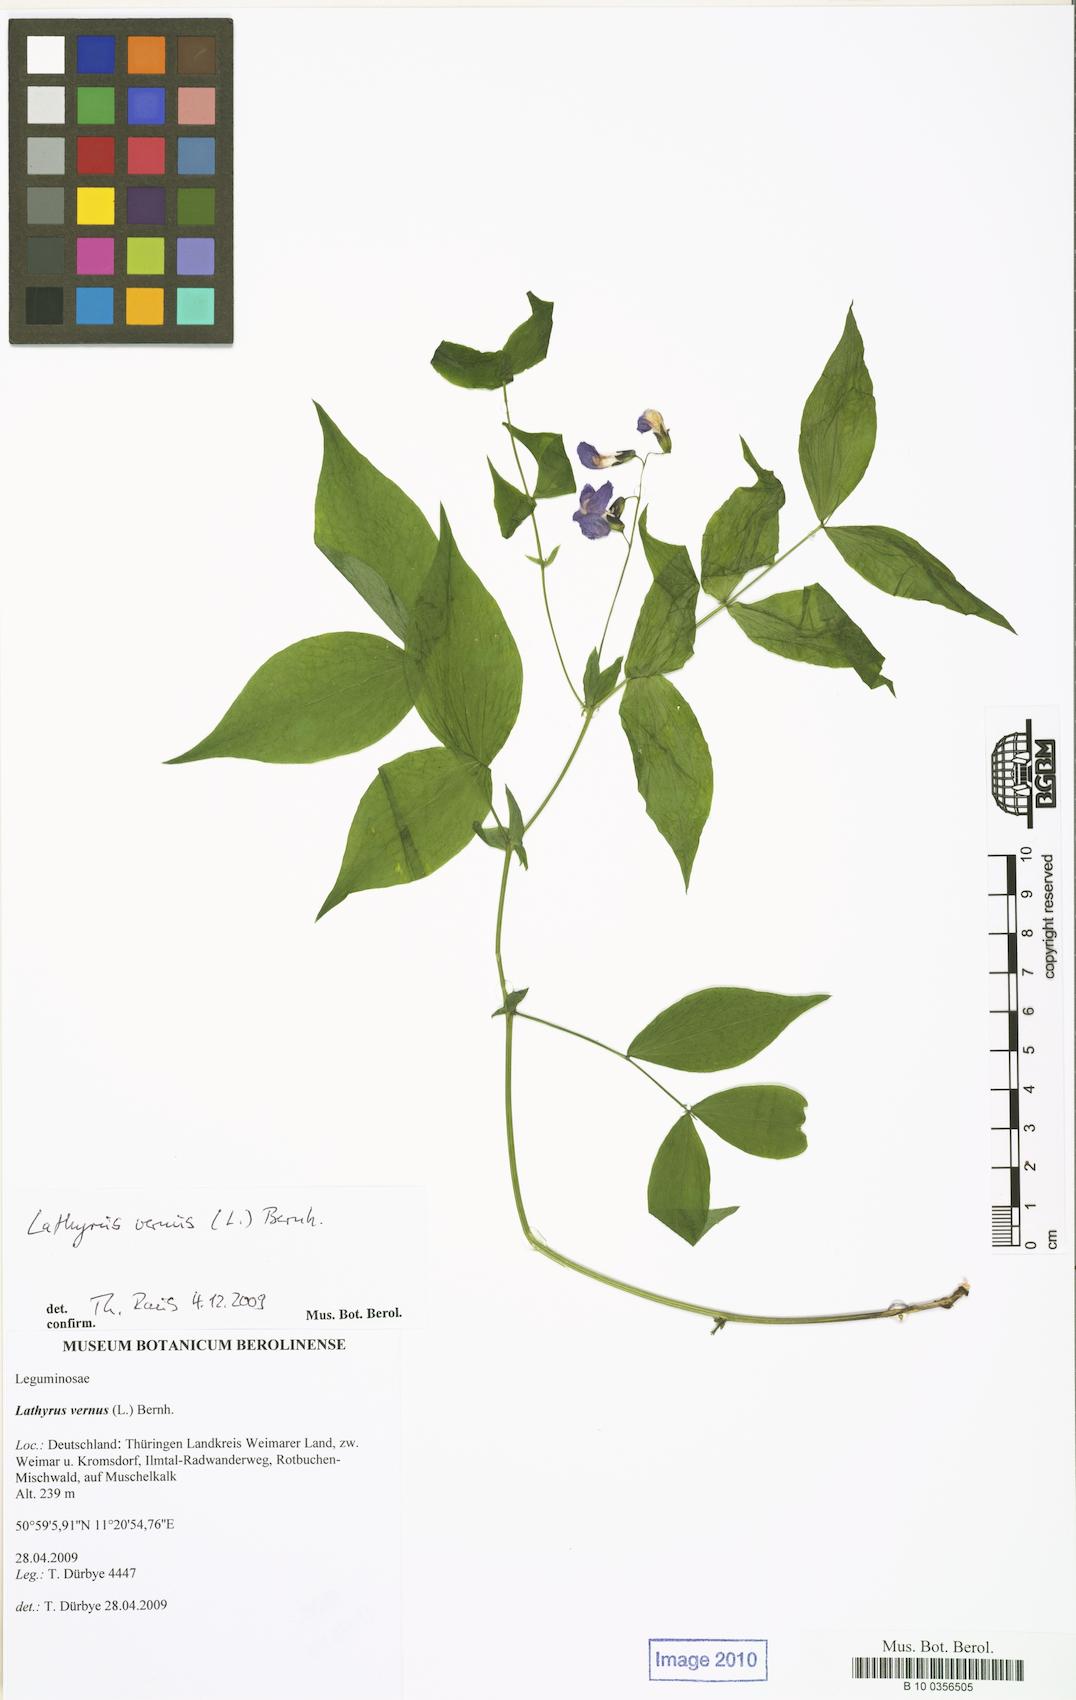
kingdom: Plantae
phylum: Tracheophyta
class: Magnoliopsida
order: Fabales
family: Fabaceae
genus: Lathyrus
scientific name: Lathyrus vernus
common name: Spring pea
